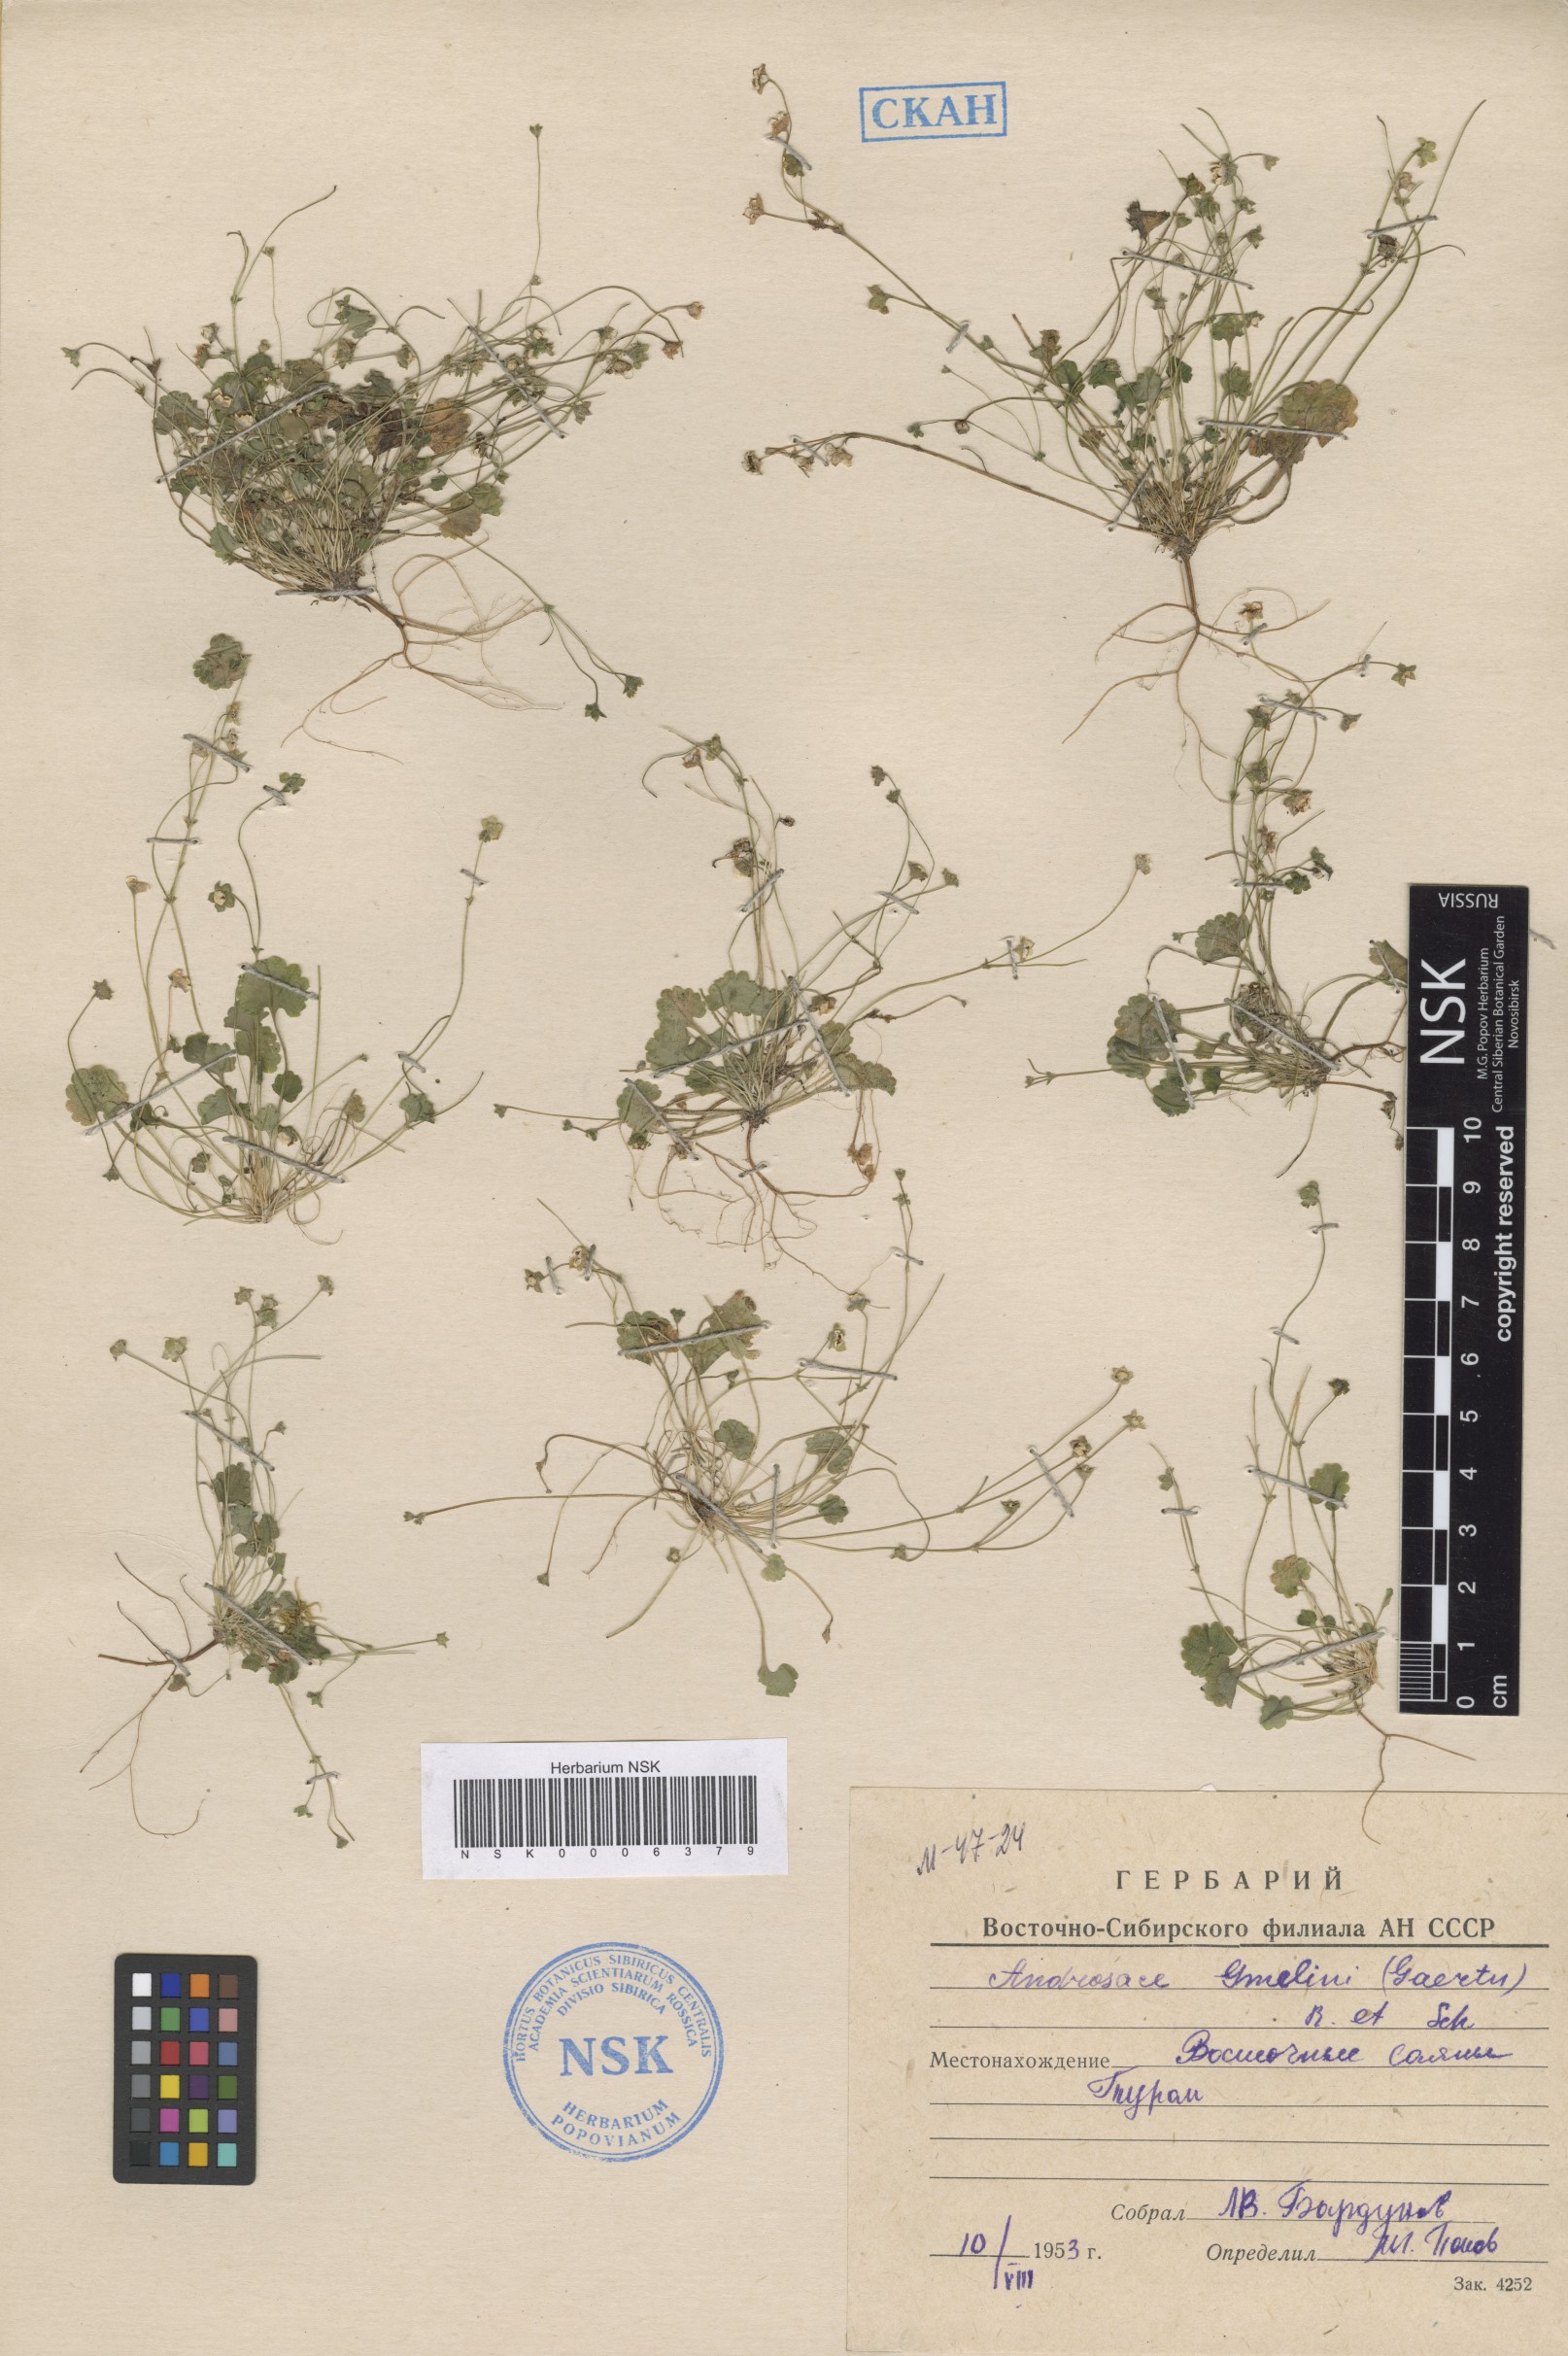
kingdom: Plantae
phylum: Tracheophyta
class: Magnoliopsida
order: Ericales
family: Primulaceae
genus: Androsace
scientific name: Androsace gmelinii
